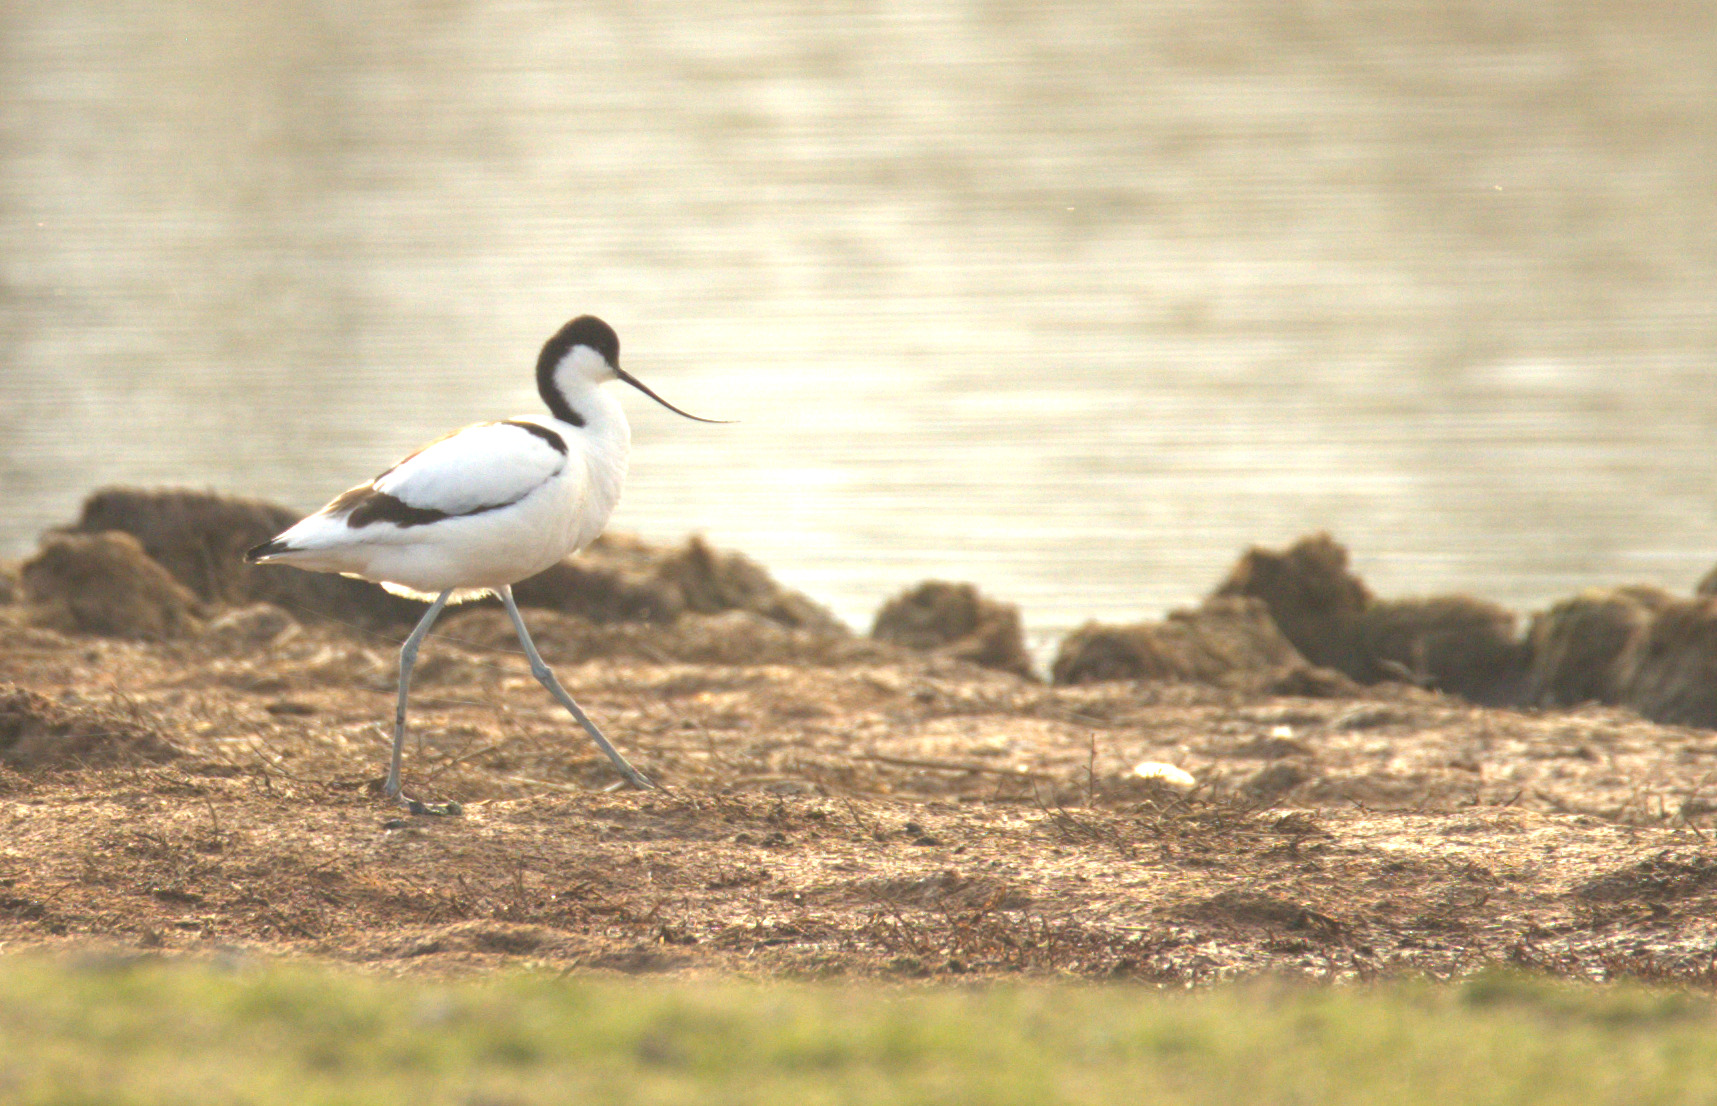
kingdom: Animalia
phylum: Chordata
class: Aves
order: Charadriiformes
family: Recurvirostridae
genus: Recurvirostra
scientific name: Recurvirostra avosetta
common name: Klyde
